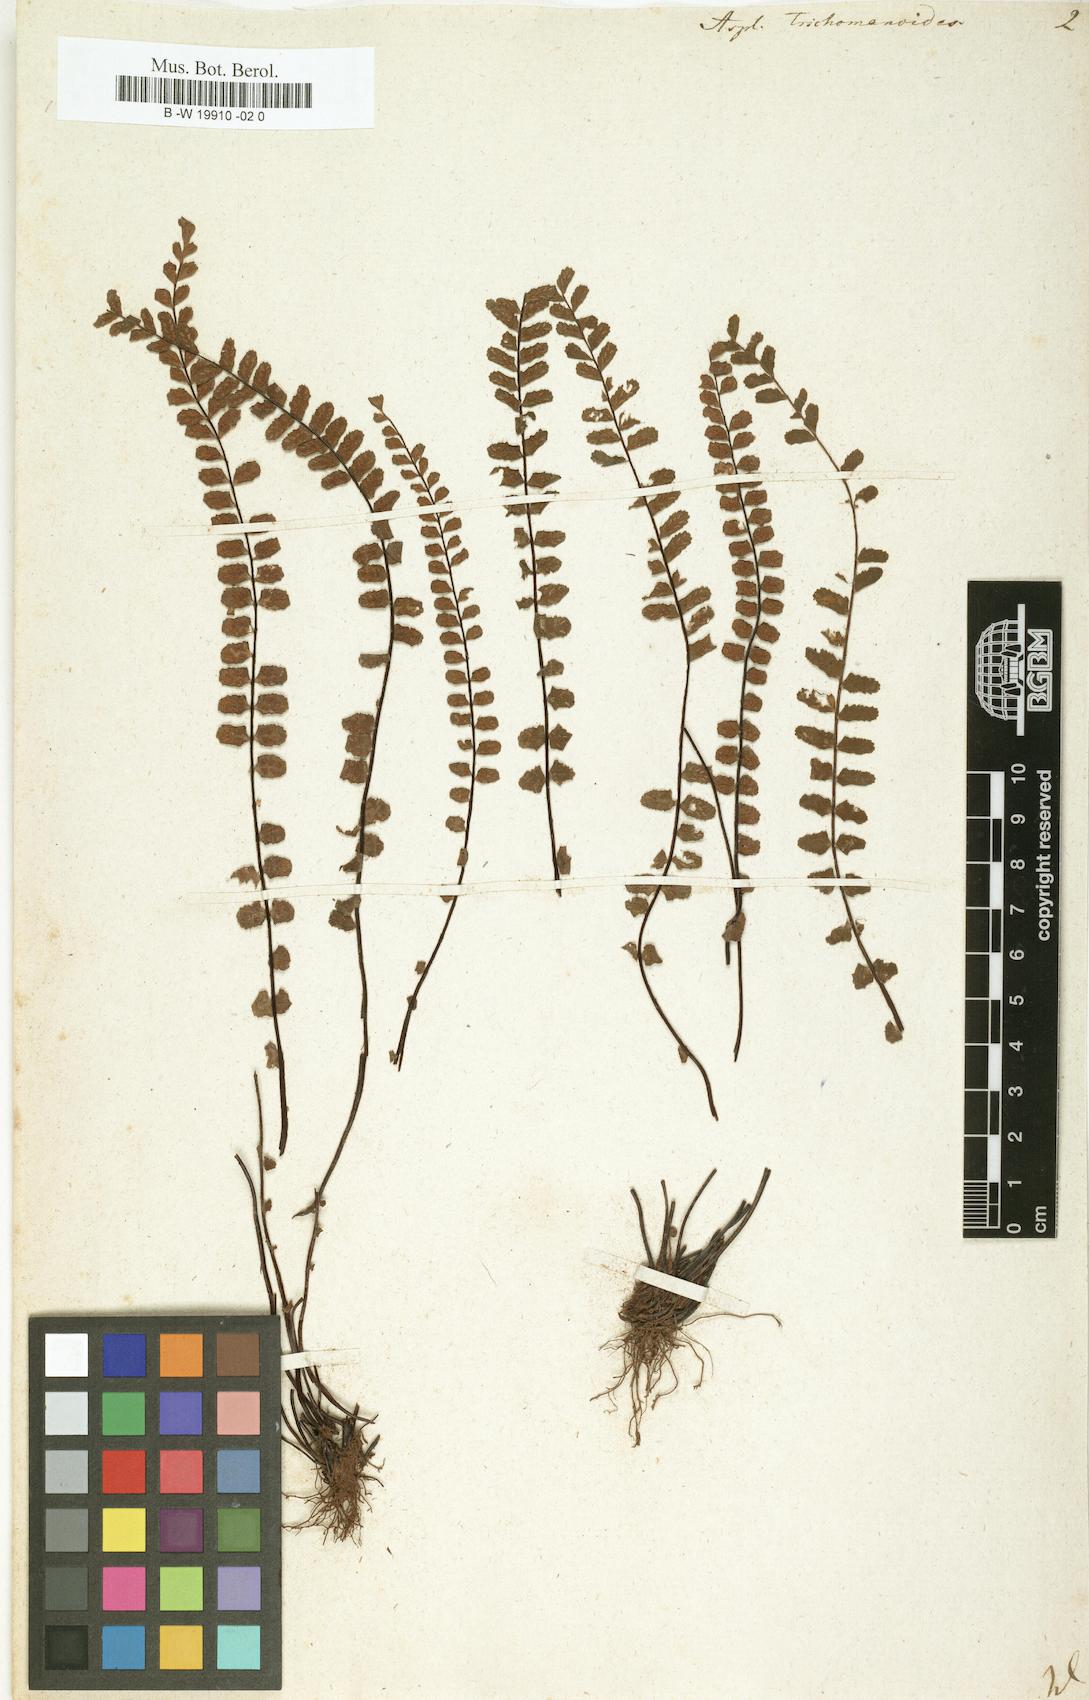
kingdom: Plantae
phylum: Tracheophyta
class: Polypodiopsida
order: Polypodiales
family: Aspleniaceae
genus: Asplenium
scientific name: Asplenium trichomanoides
